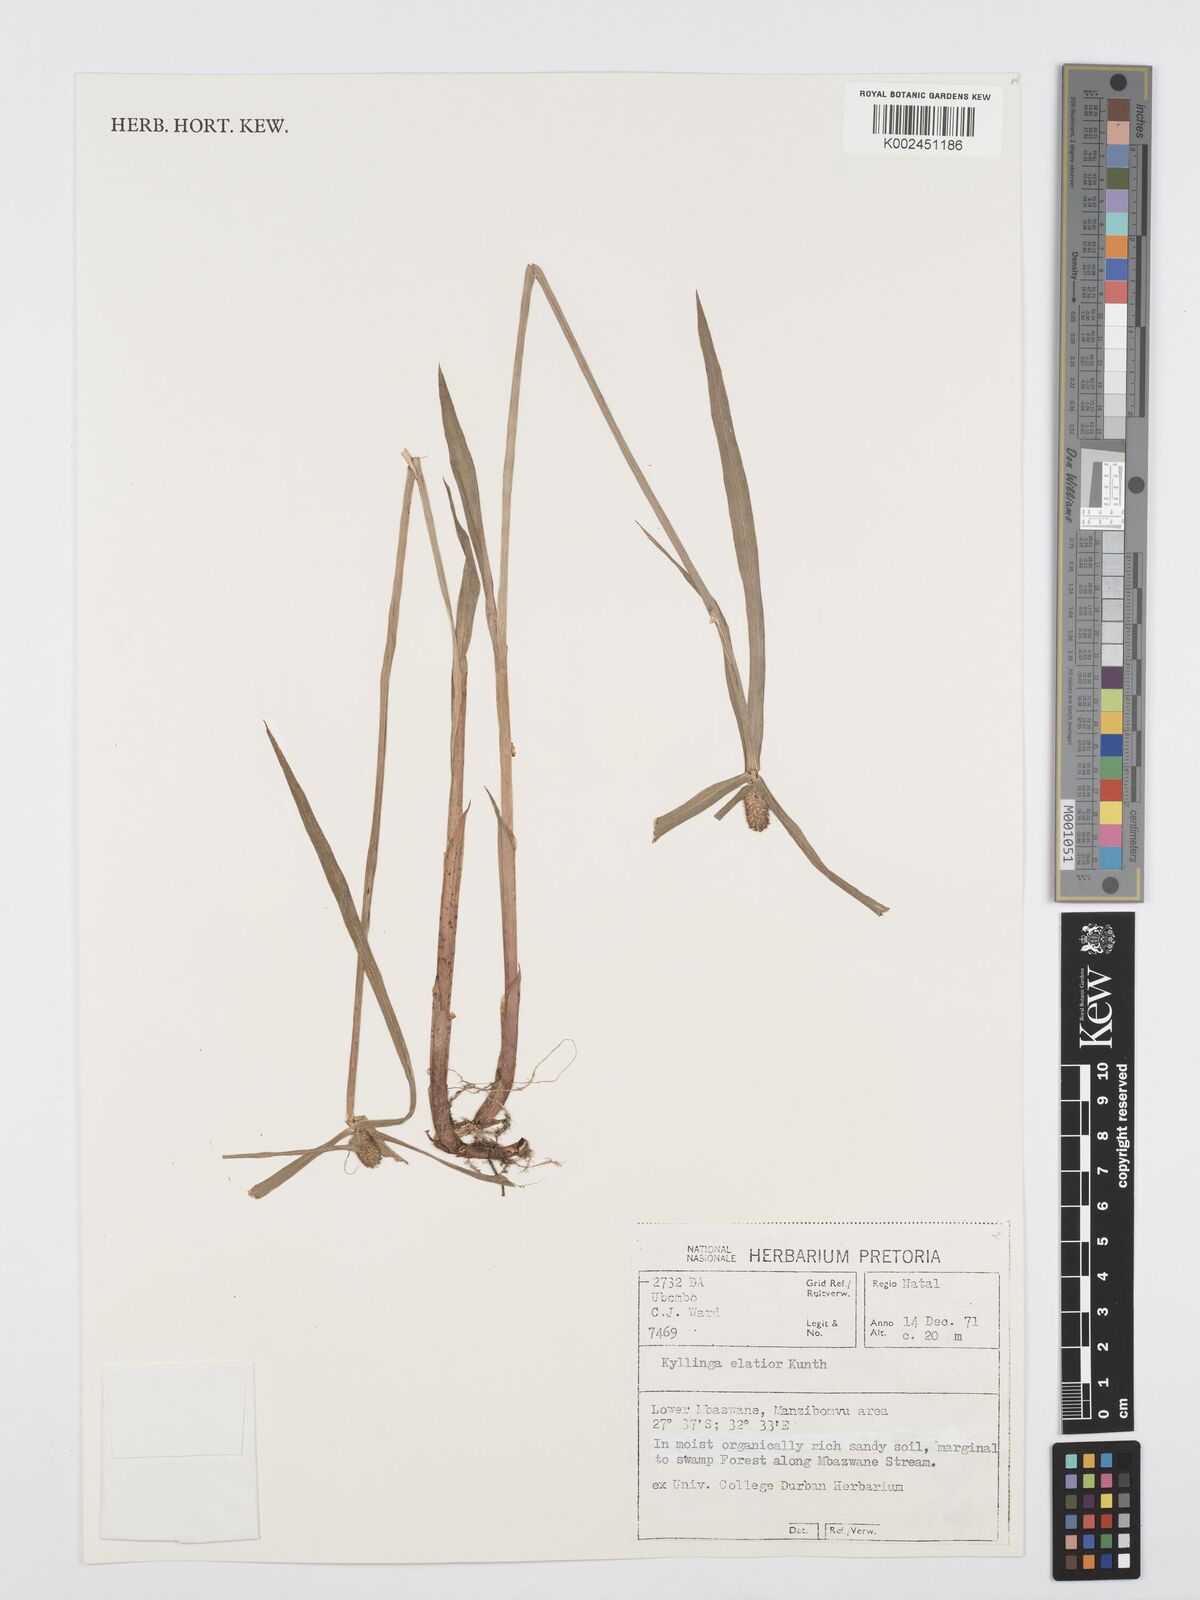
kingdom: Plantae
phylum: Tracheophyta
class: Liliopsida
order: Poales
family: Cyperaceae
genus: Cyperus
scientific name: Cyperus
